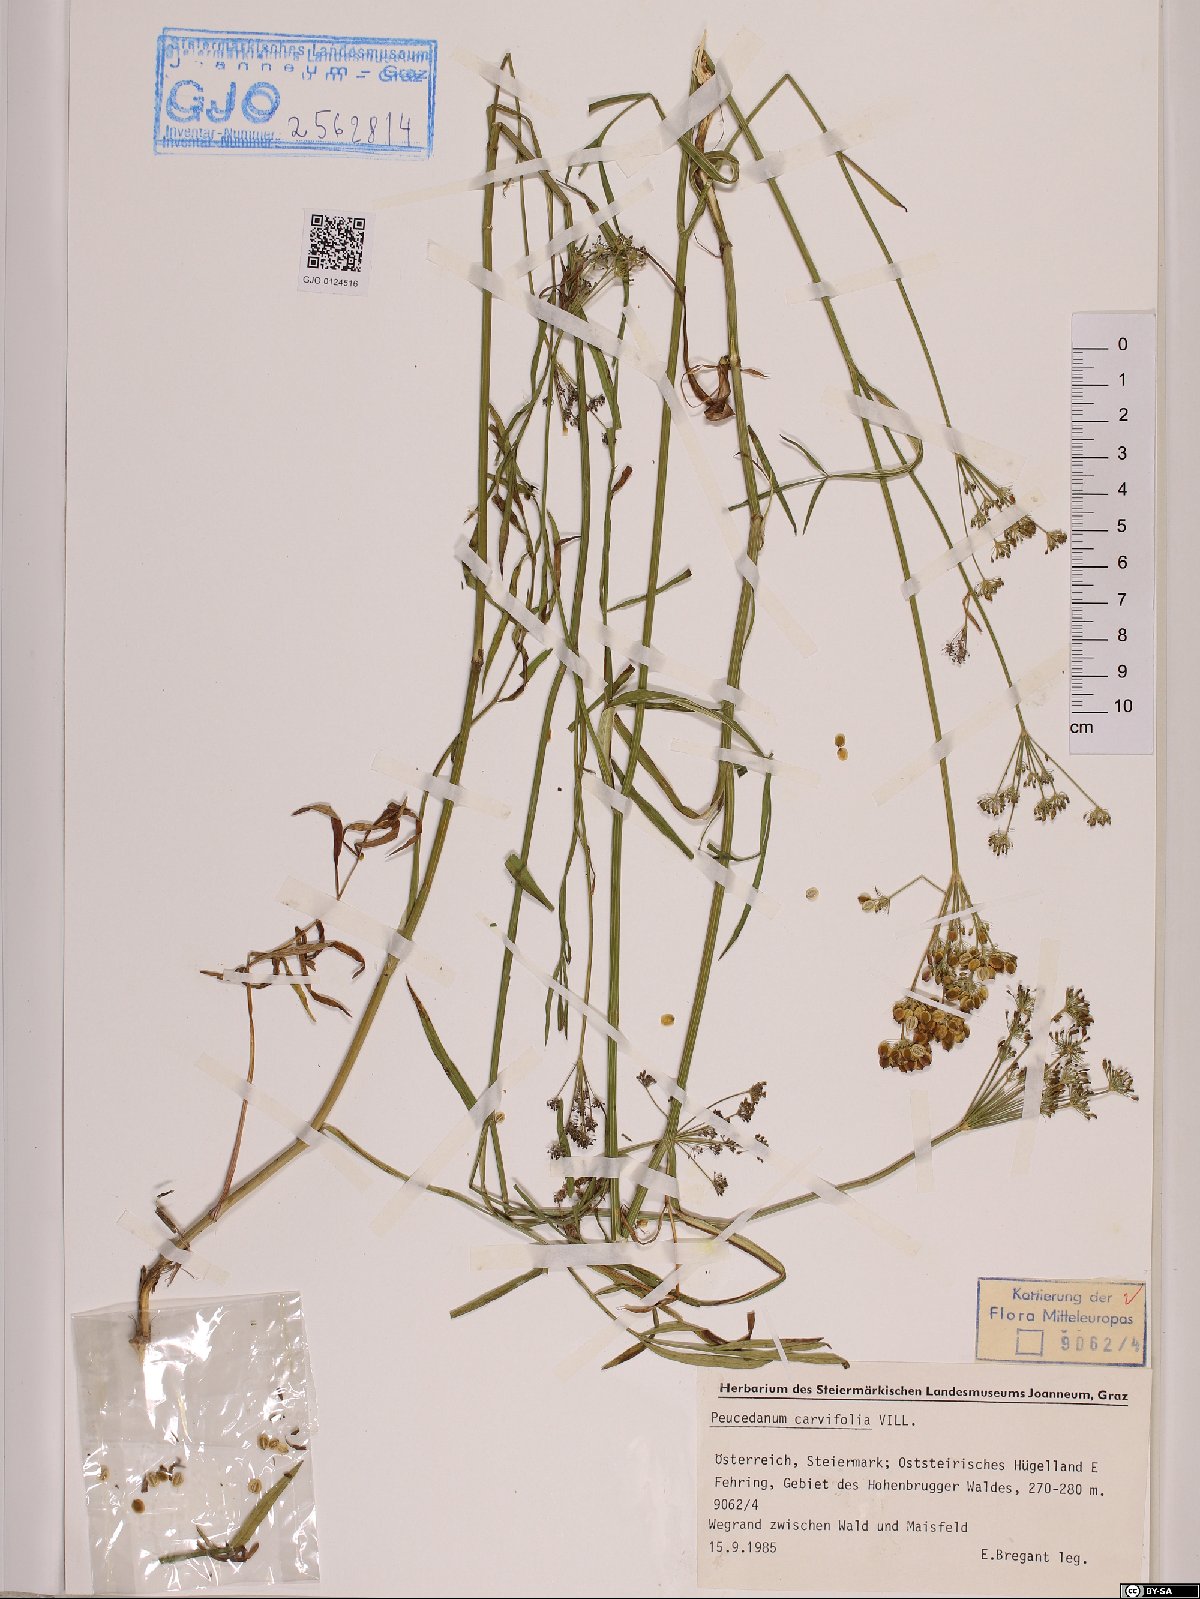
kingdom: Plantae
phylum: Tracheophyta
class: Magnoliopsida
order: Apiales
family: Apiaceae
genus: Dichoropetalum
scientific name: Dichoropetalum carvifolia
